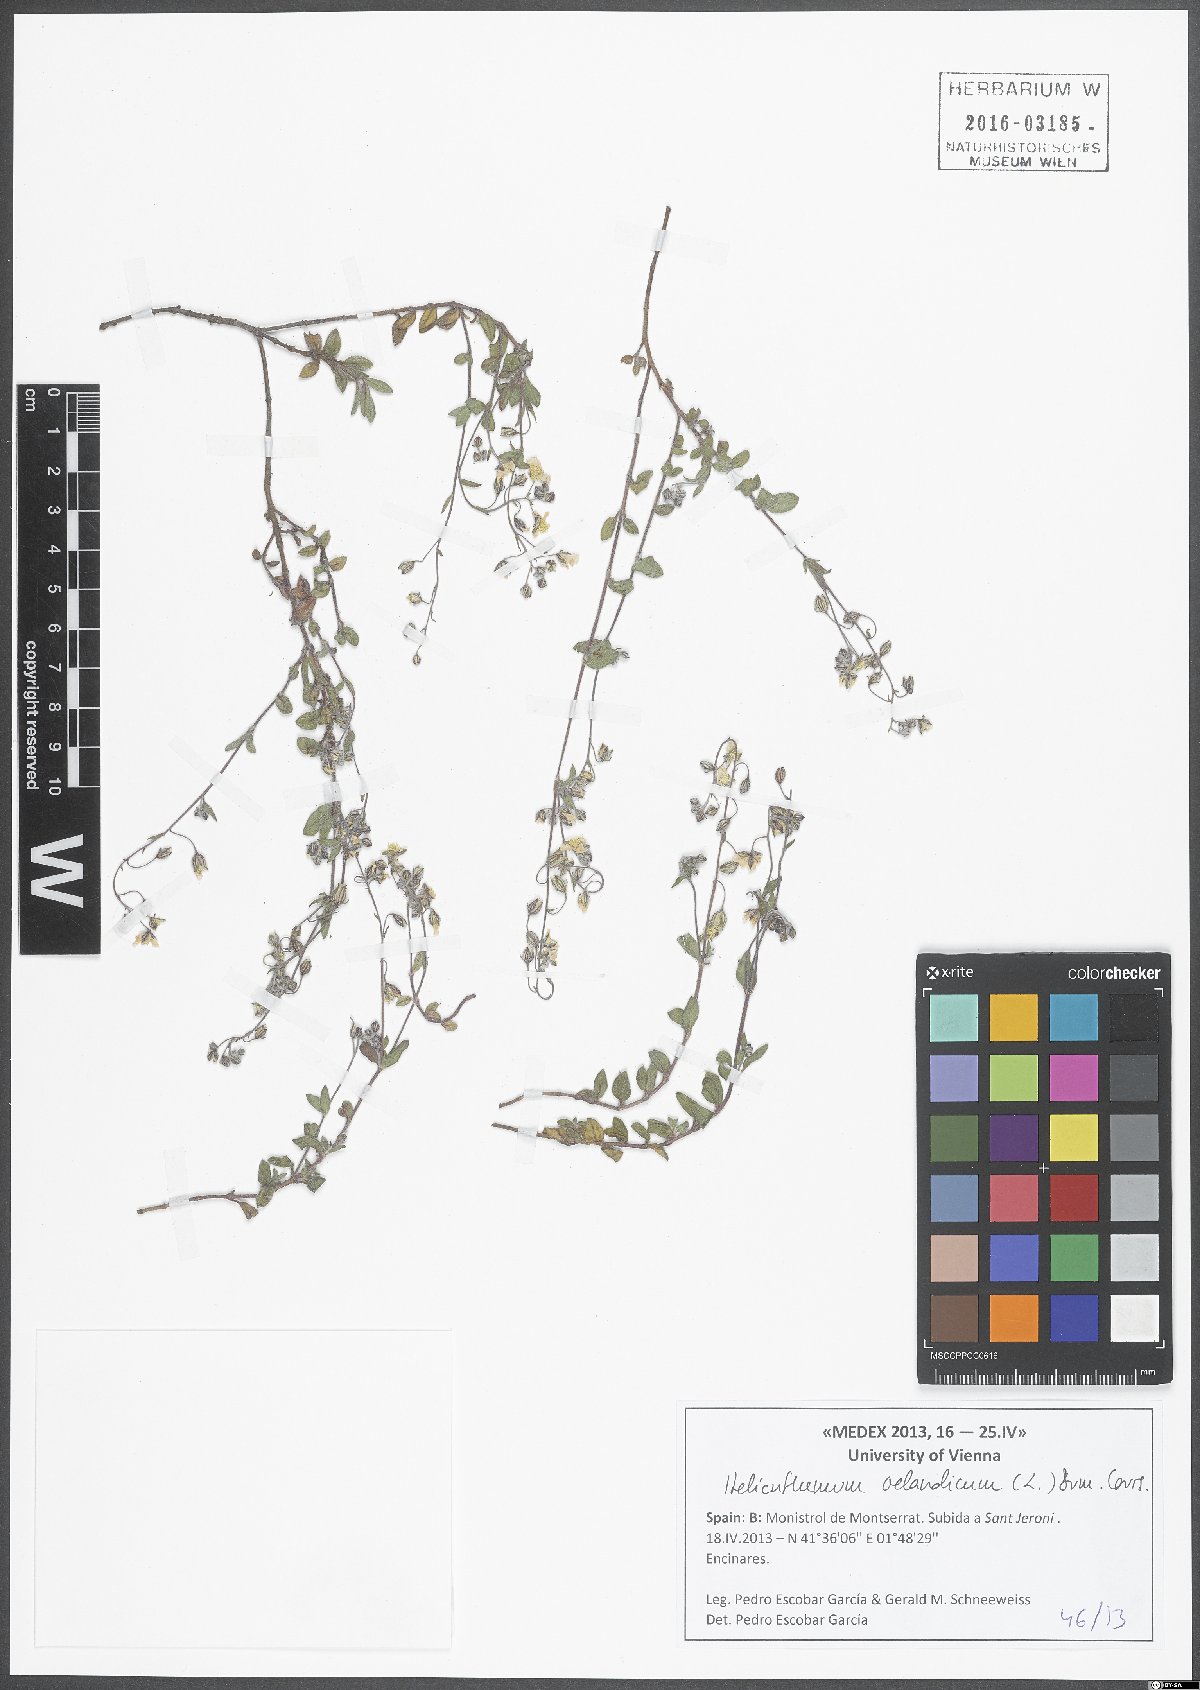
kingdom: Plantae
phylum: Tracheophyta
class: Magnoliopsida
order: Malvales
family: Cistaceae
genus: Helianthemum
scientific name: Helianthemum oelandicum
